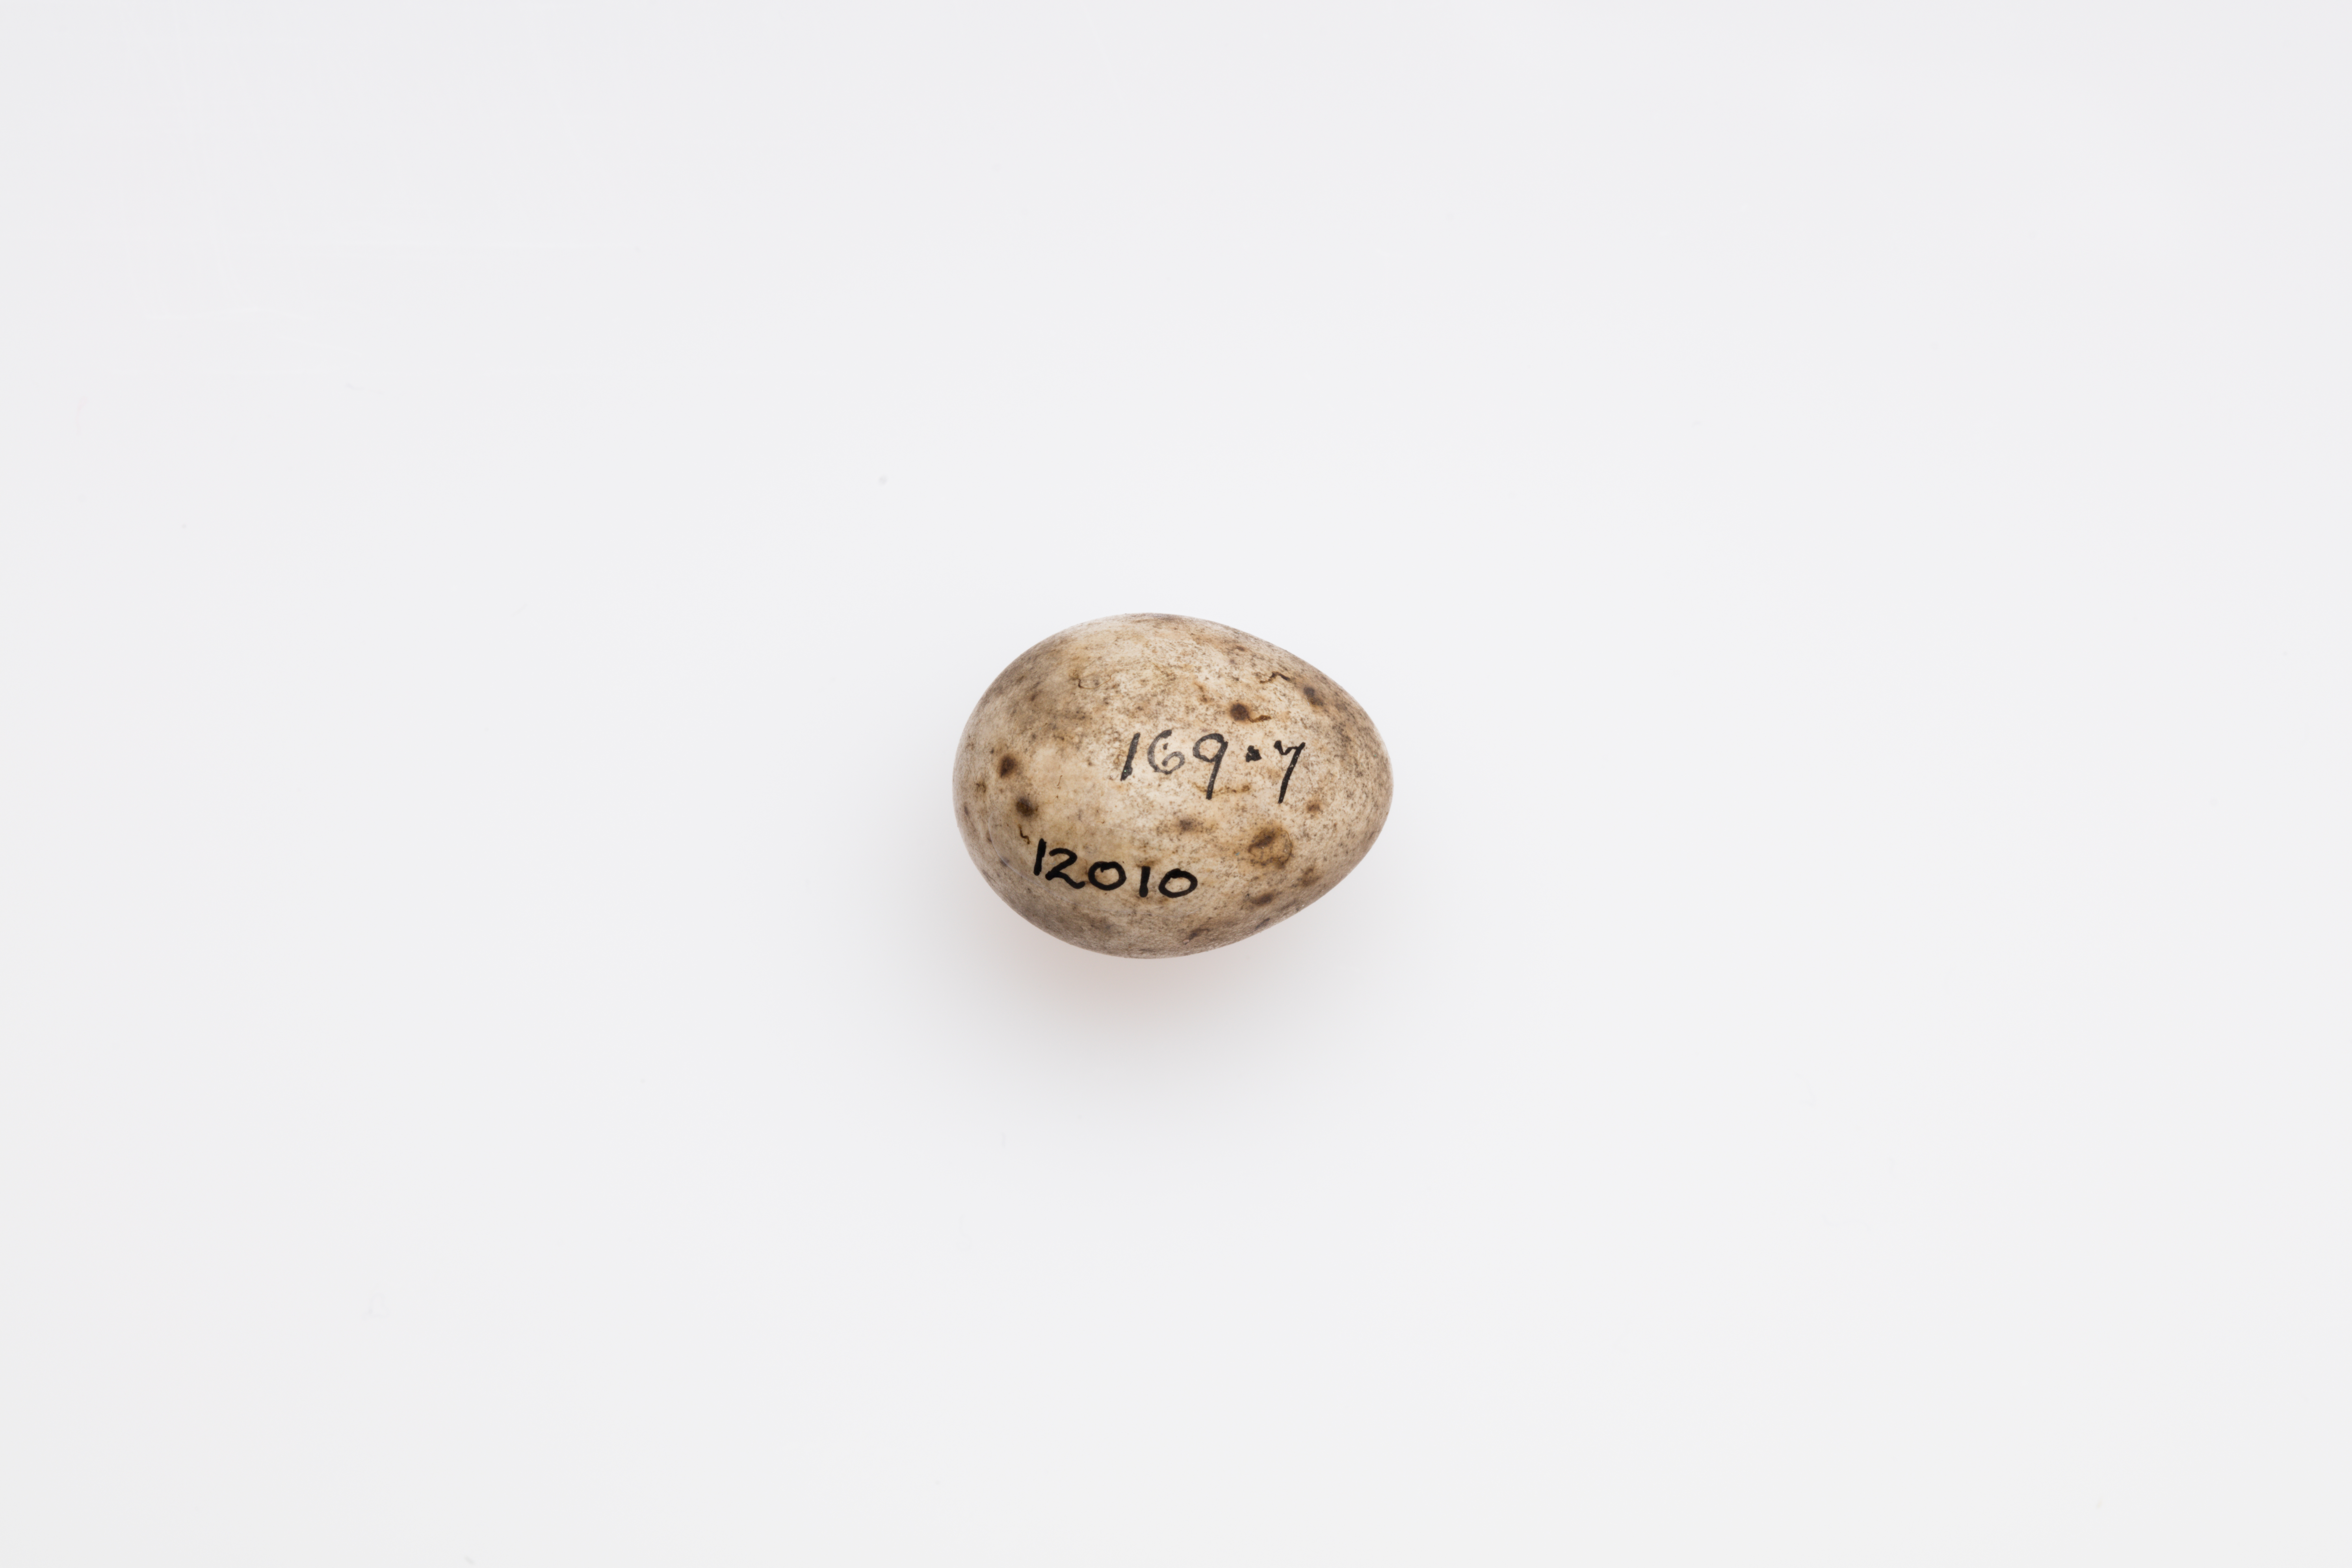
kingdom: Animalia
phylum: Chordata
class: Aves
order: Passeriformes
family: Sylviidae
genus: Sylvia
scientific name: Sylvia atricapilla
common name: Eurasian blackcap
